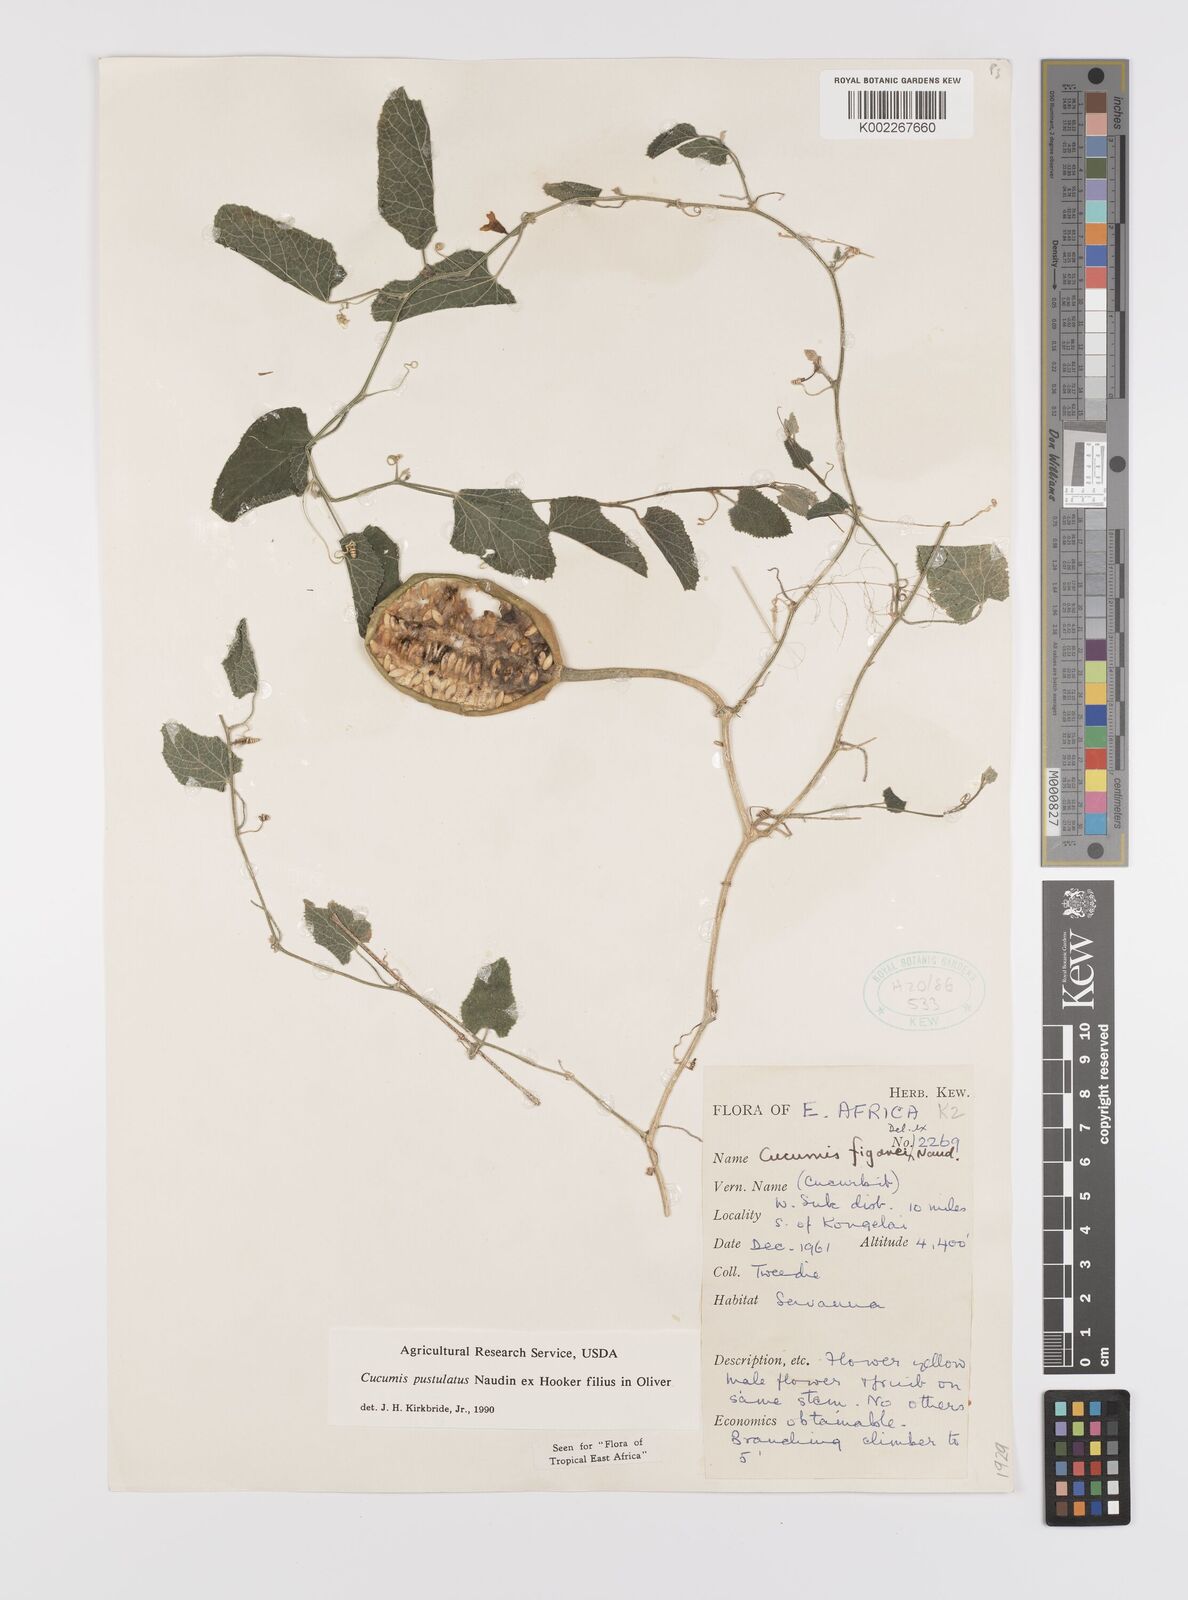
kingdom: Plantae
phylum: Tracheophyta
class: Magnoliopsida
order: Cucurbitales
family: Cucurbitaceae
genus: Cucumis
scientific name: Cucumis pustulatus
